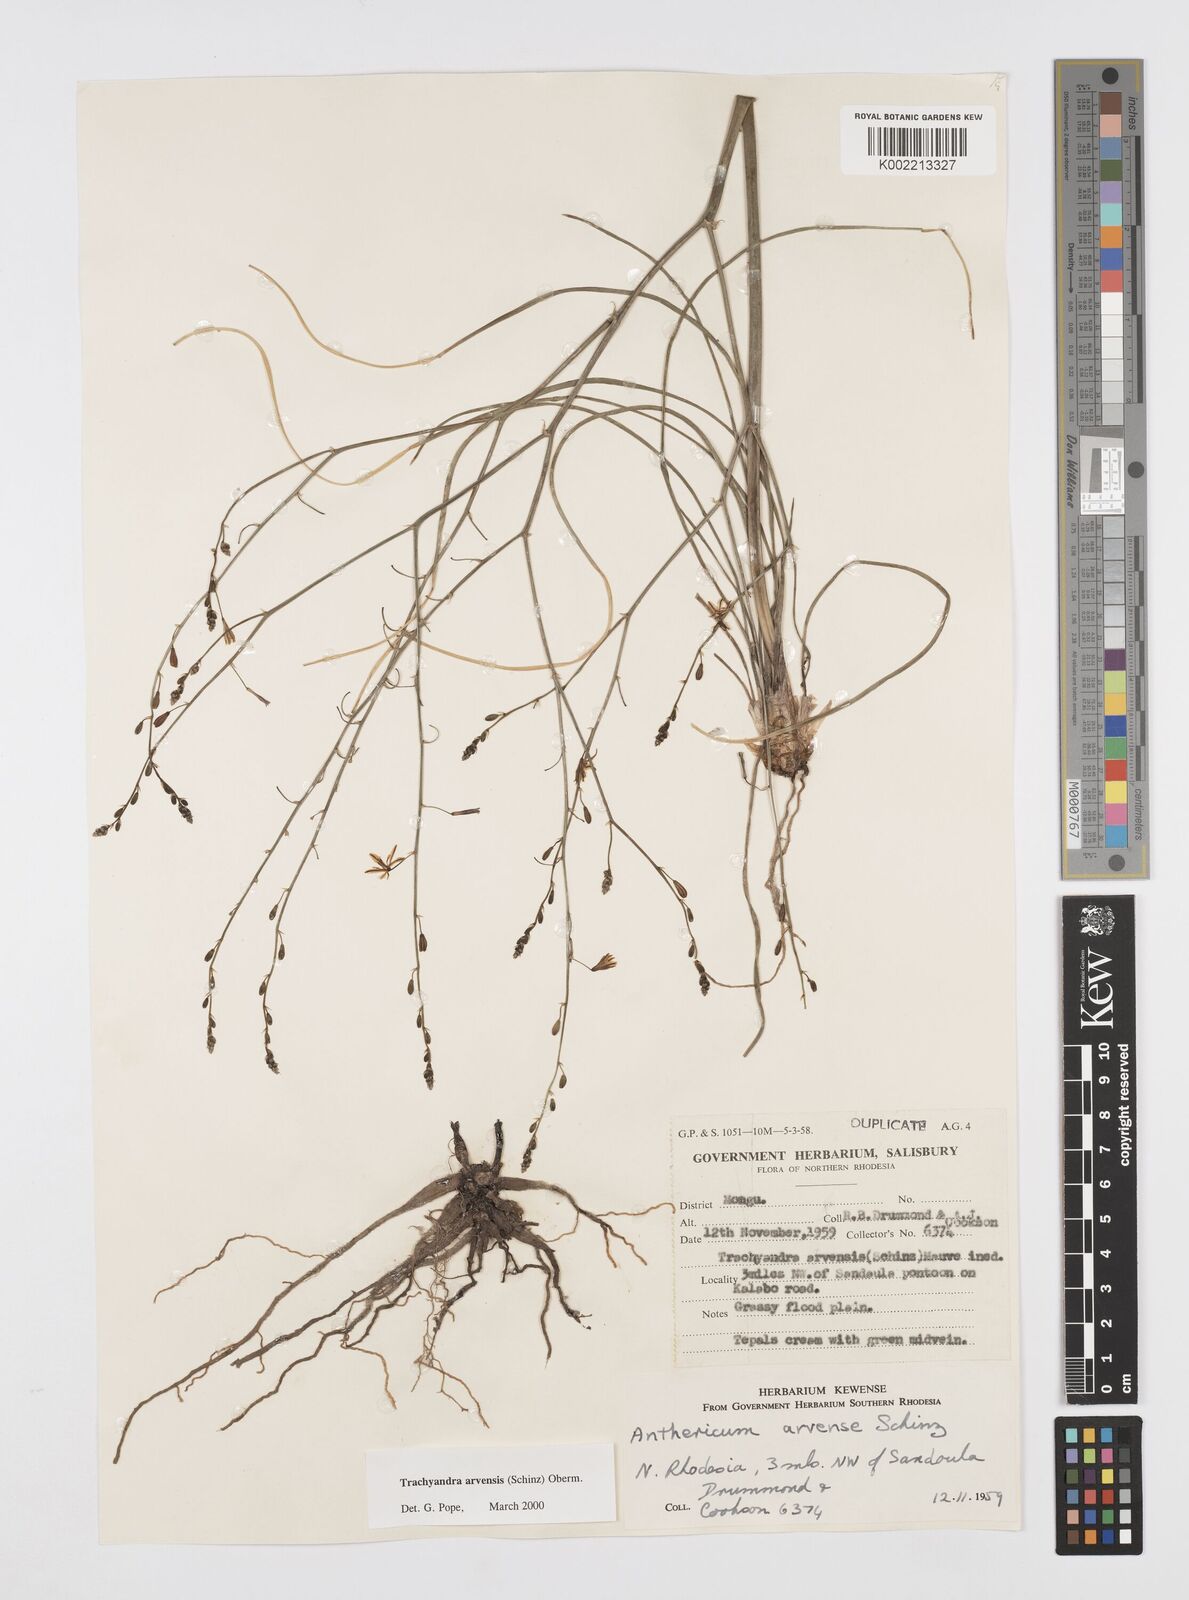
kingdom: Plantae
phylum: Tracheophyta
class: Liliopsida
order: Asparagales
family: Asphodelaceae
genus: Trachyandra
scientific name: Trachyandra arvensis
